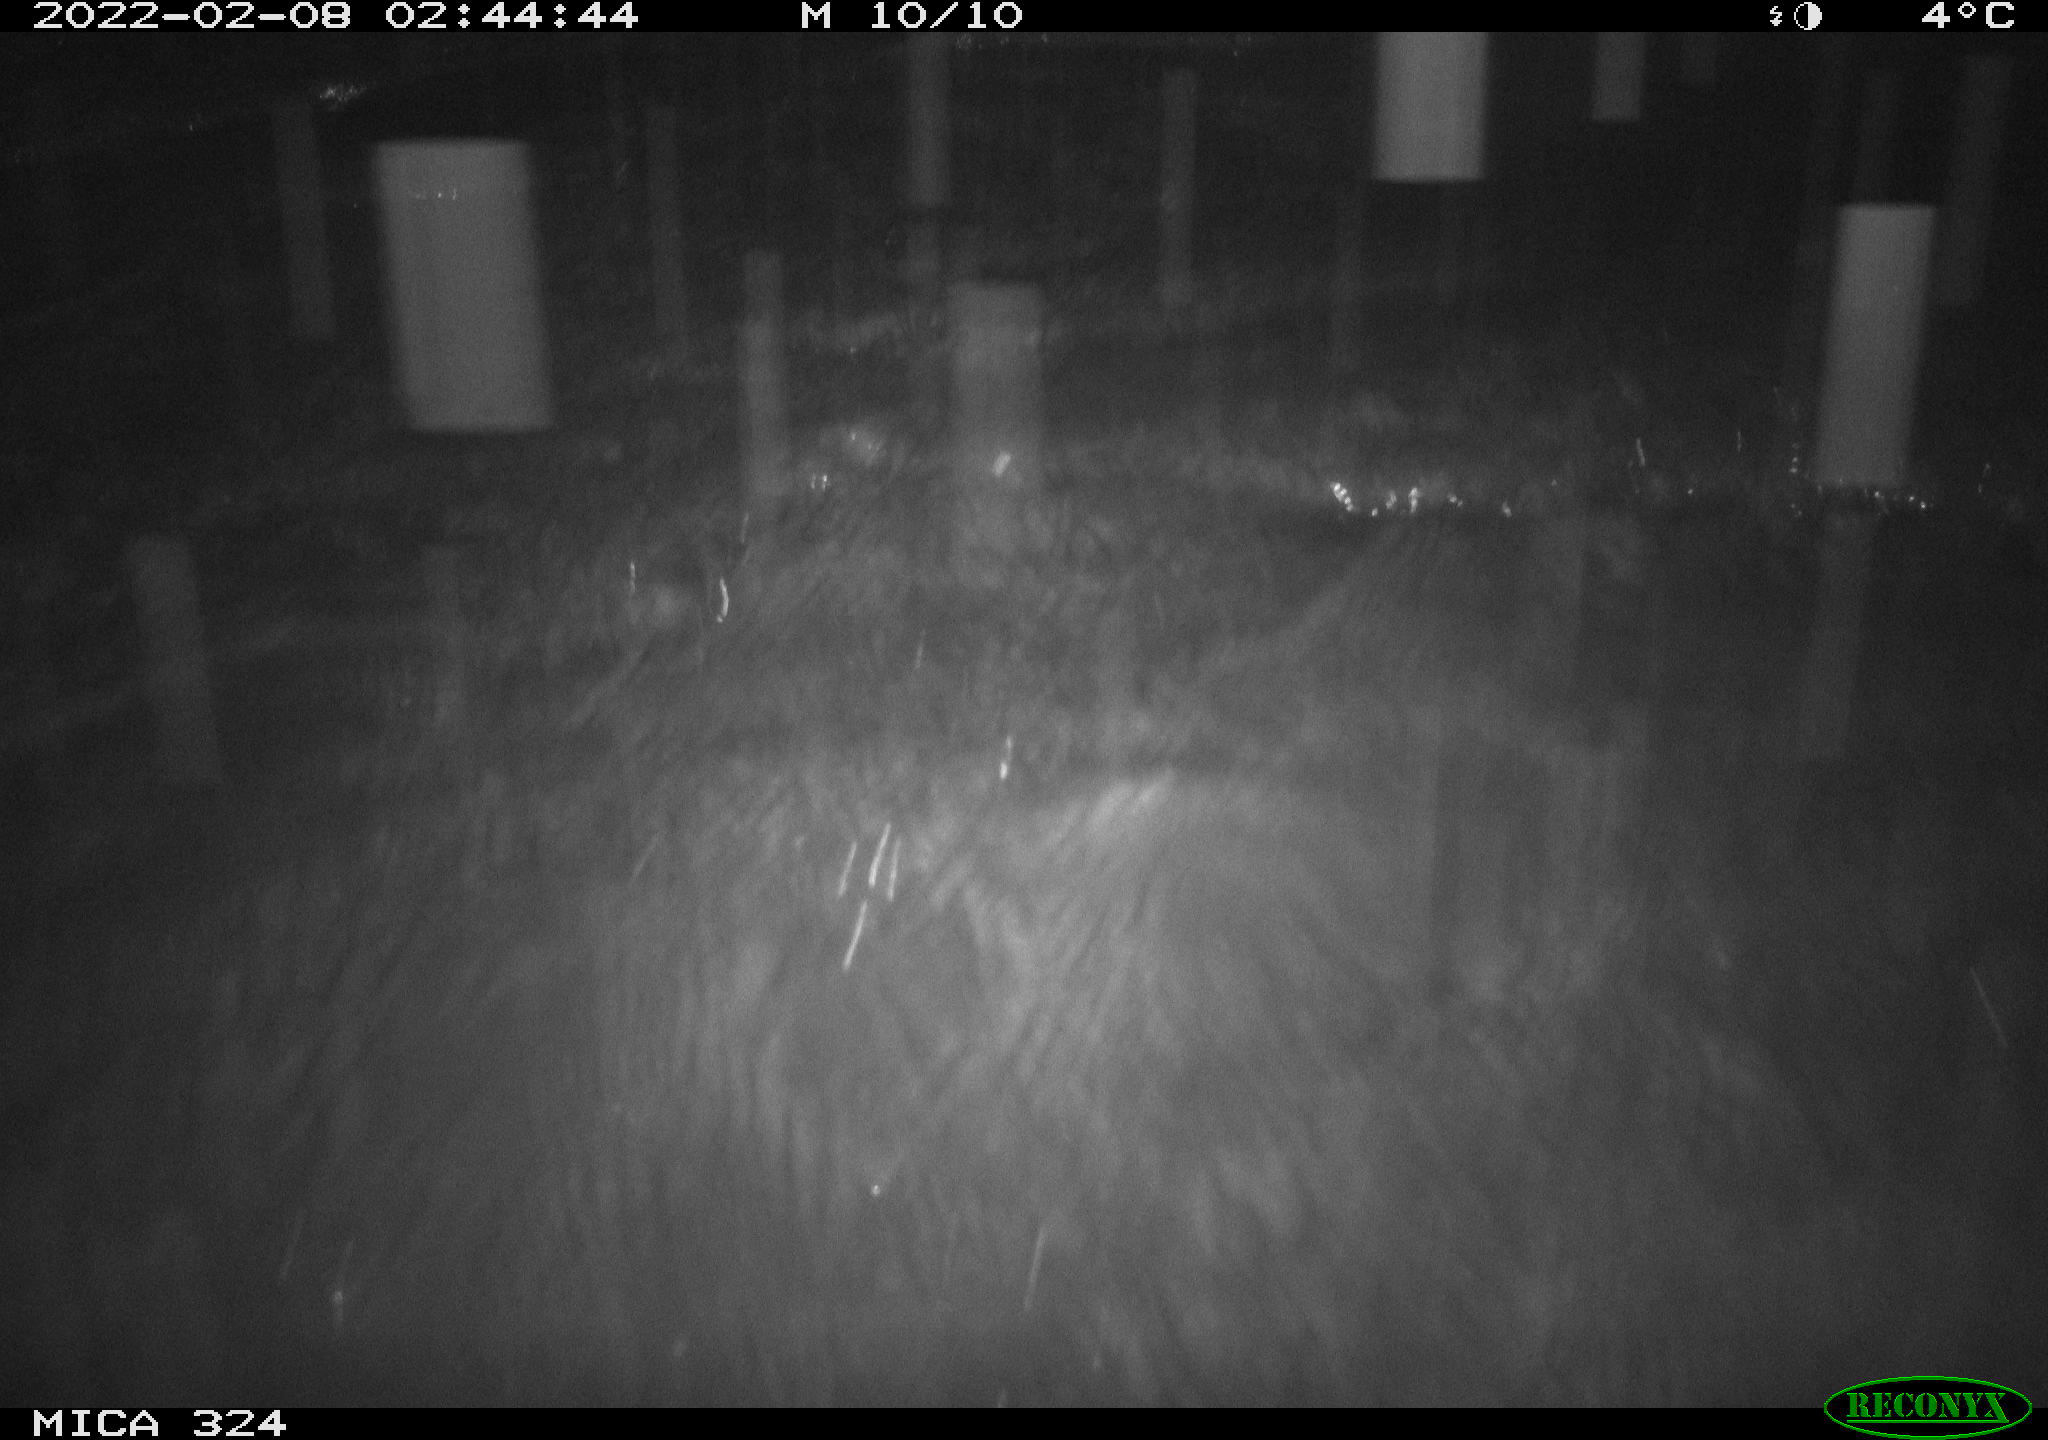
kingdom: Animalia
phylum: Chordata
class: Mammalia
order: Rodentia
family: Cricetidae
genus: Ondatra
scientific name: Ondatra zibethicus
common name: Muskrat
